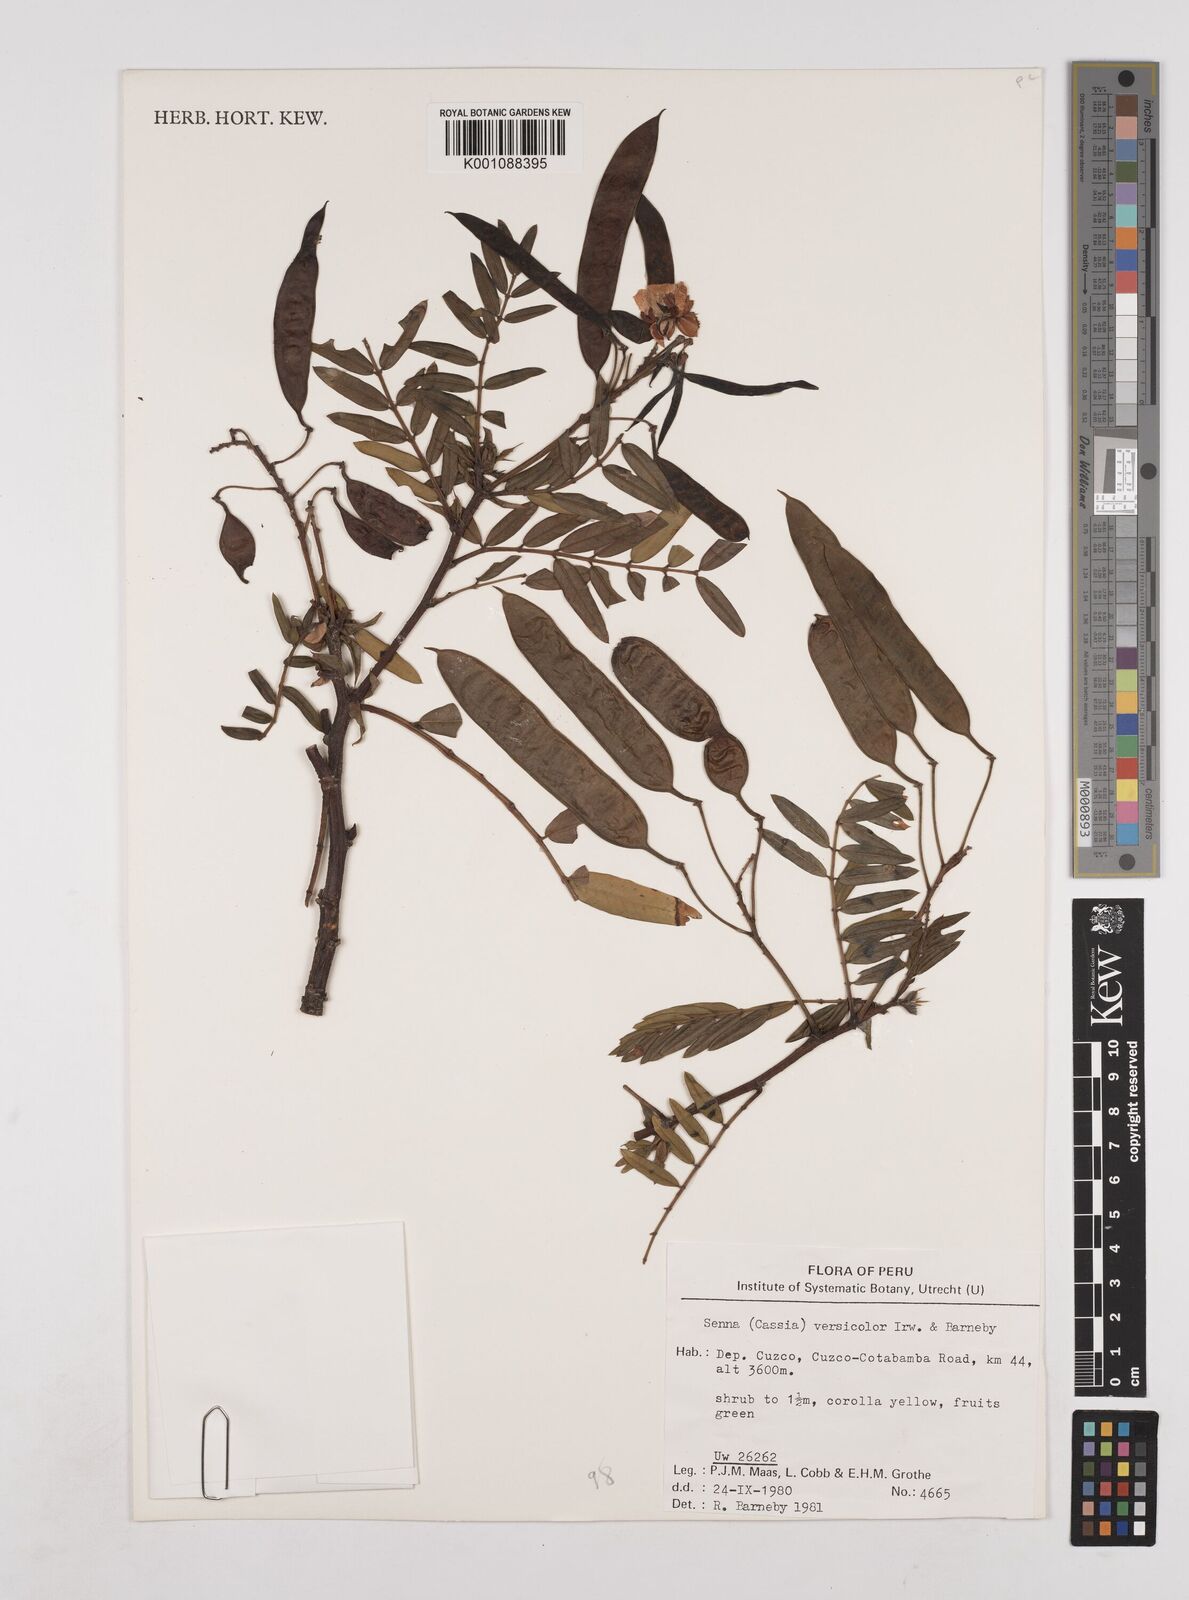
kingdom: Plantae
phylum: Tracheophyta
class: Magnoliopsida
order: Fabales
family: Fabaceae
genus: Senna
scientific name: Senna versicolor
